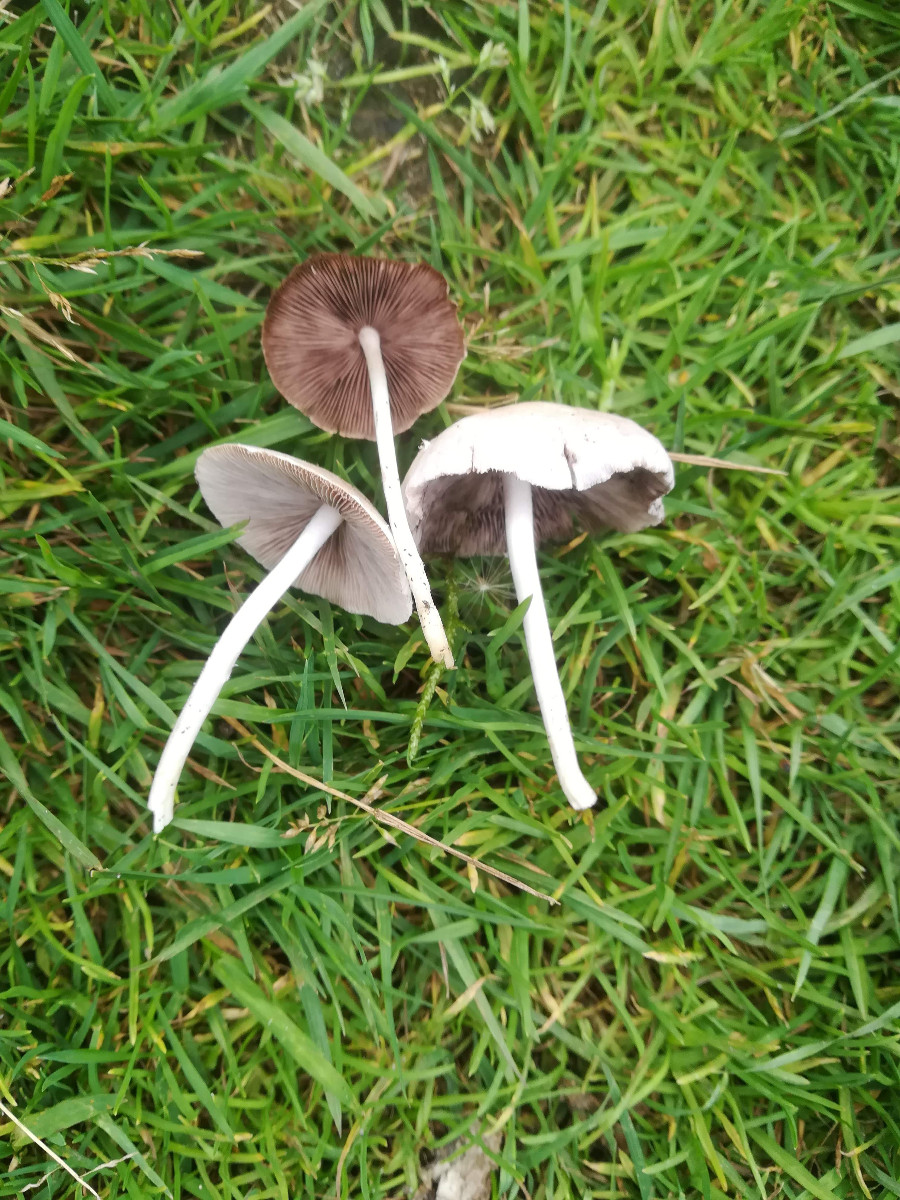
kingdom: Fungi
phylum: Basidiomycota
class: Agaricomycetes
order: Agaricales
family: Psathyrellaceae
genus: Candolleomyces
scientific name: Candolleomyces candolleanus
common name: Candolles mørkhat
